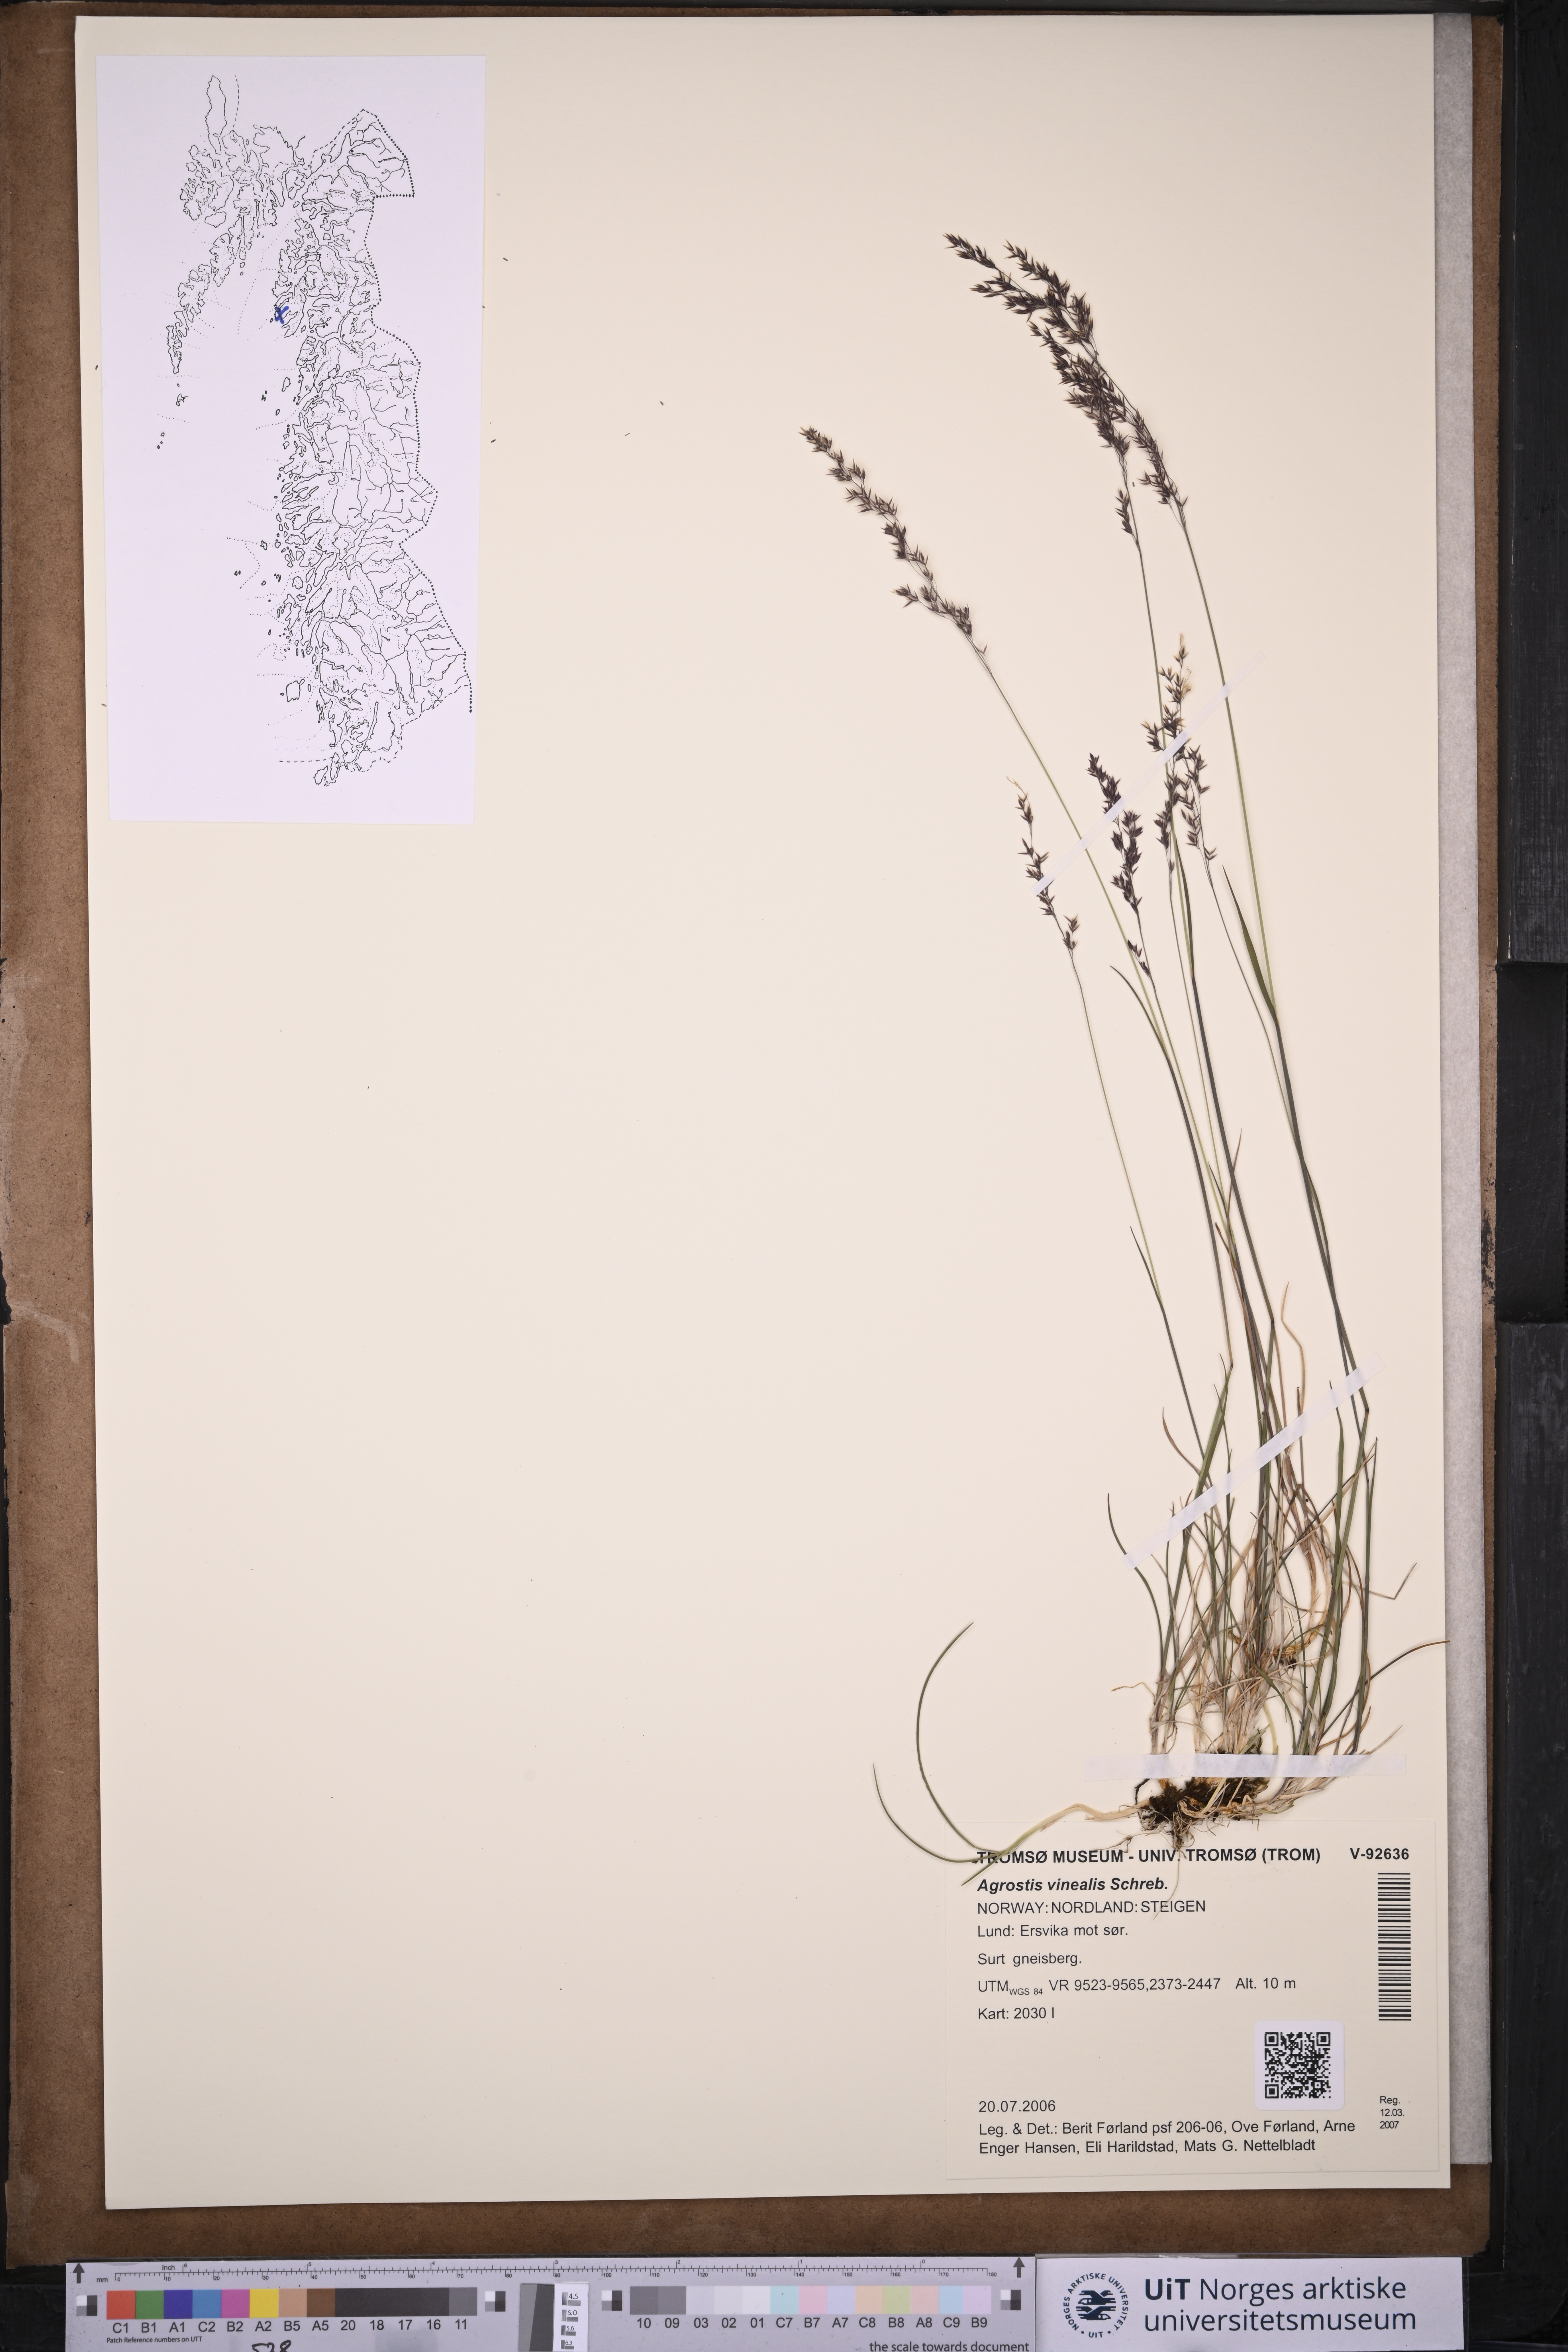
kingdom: Plantae
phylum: Tracheophyta
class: Liliopsida
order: Poales
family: Poaceae
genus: Agrostis
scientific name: Agrostis vinealis
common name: Brown bent
